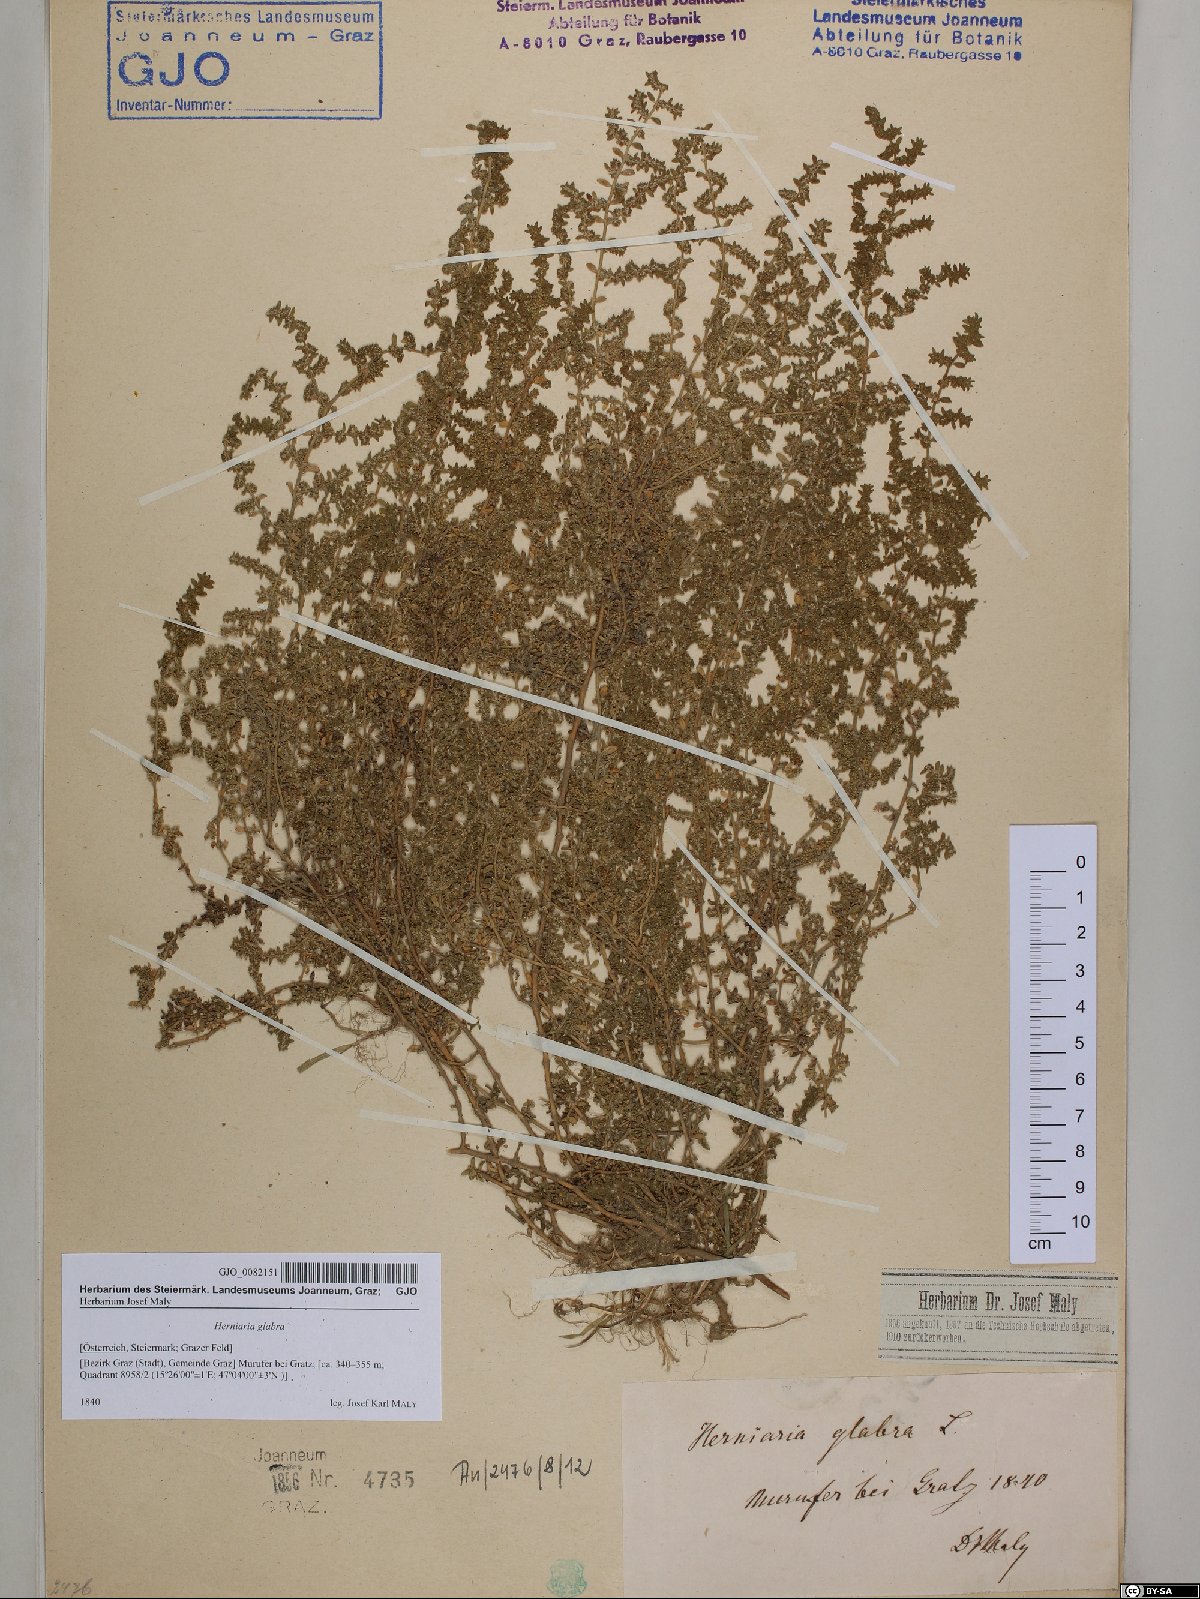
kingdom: Plantae
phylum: Tracheophyta
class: Magnoliopsida
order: Caryophyllales
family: Caryophyllaceae
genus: Herniaria
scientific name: Herniaria glabra
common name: Smooth rupturewort
